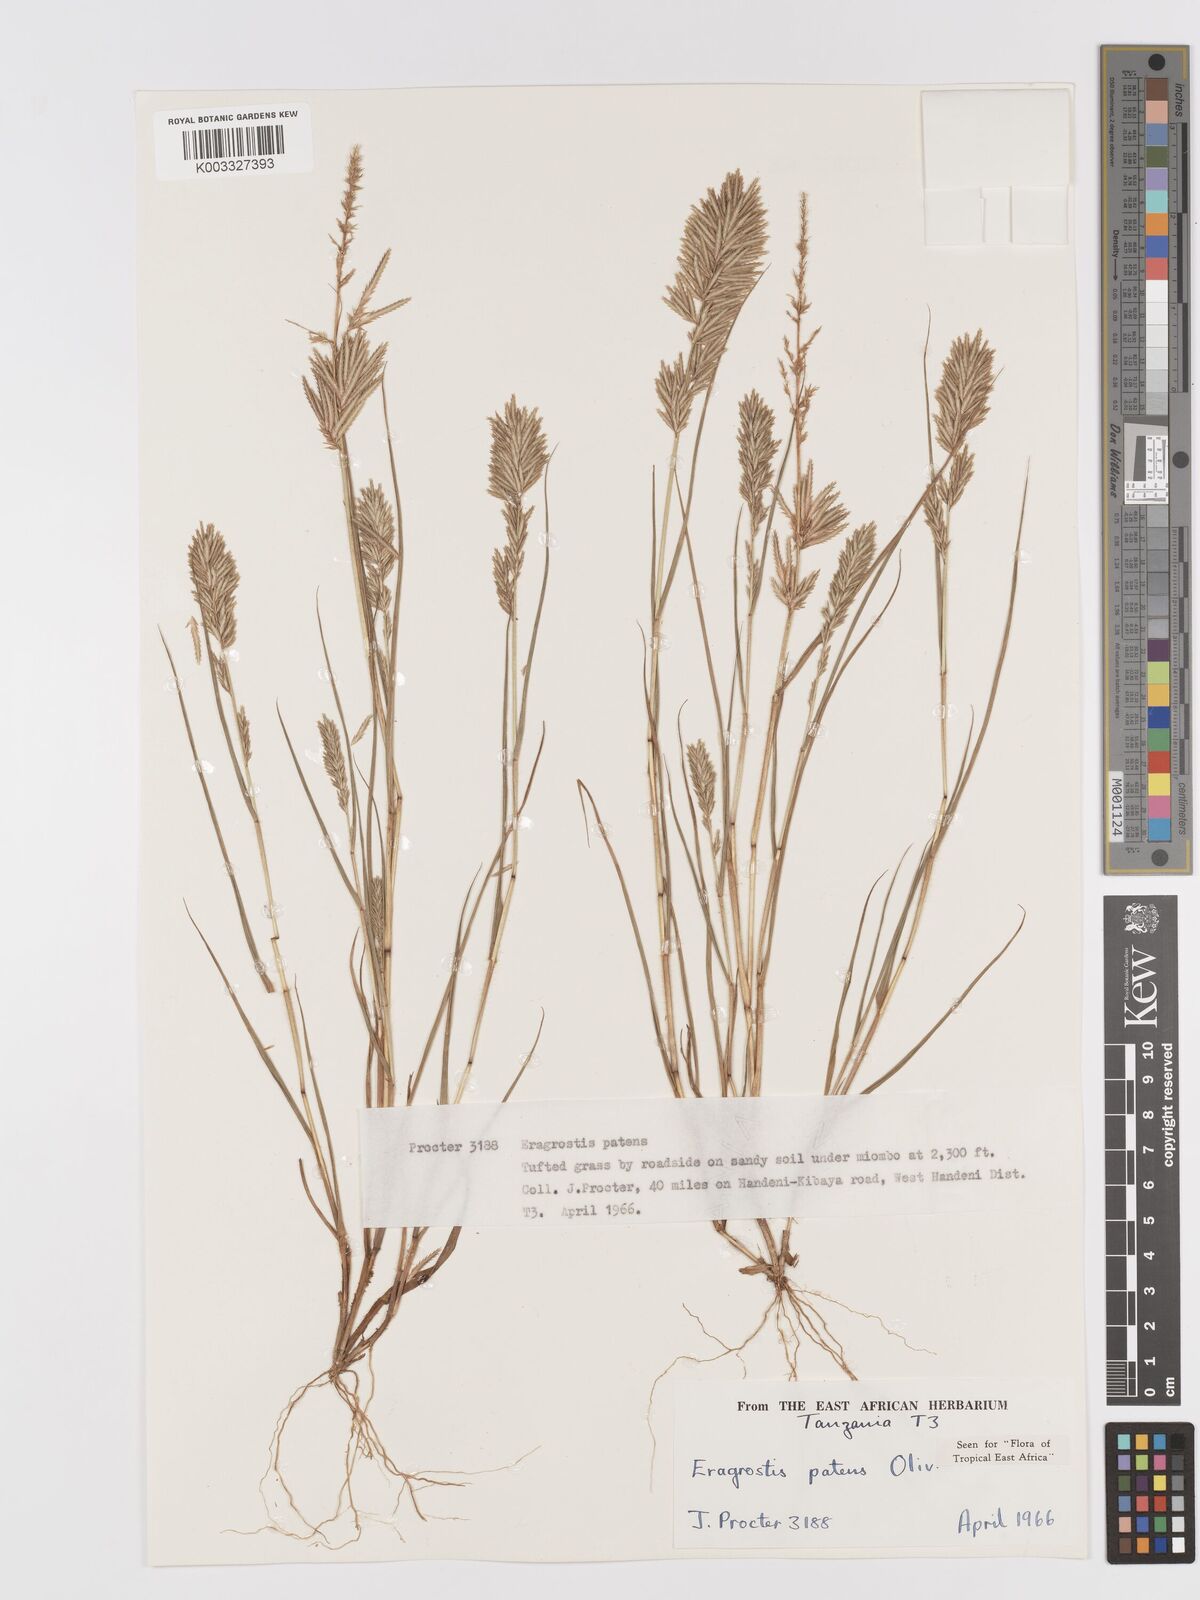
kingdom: Plantae
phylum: Tracheophyta
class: Liliopsida
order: Poales
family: Poaceae
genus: Eragrostis
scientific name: Eragrostis patens
